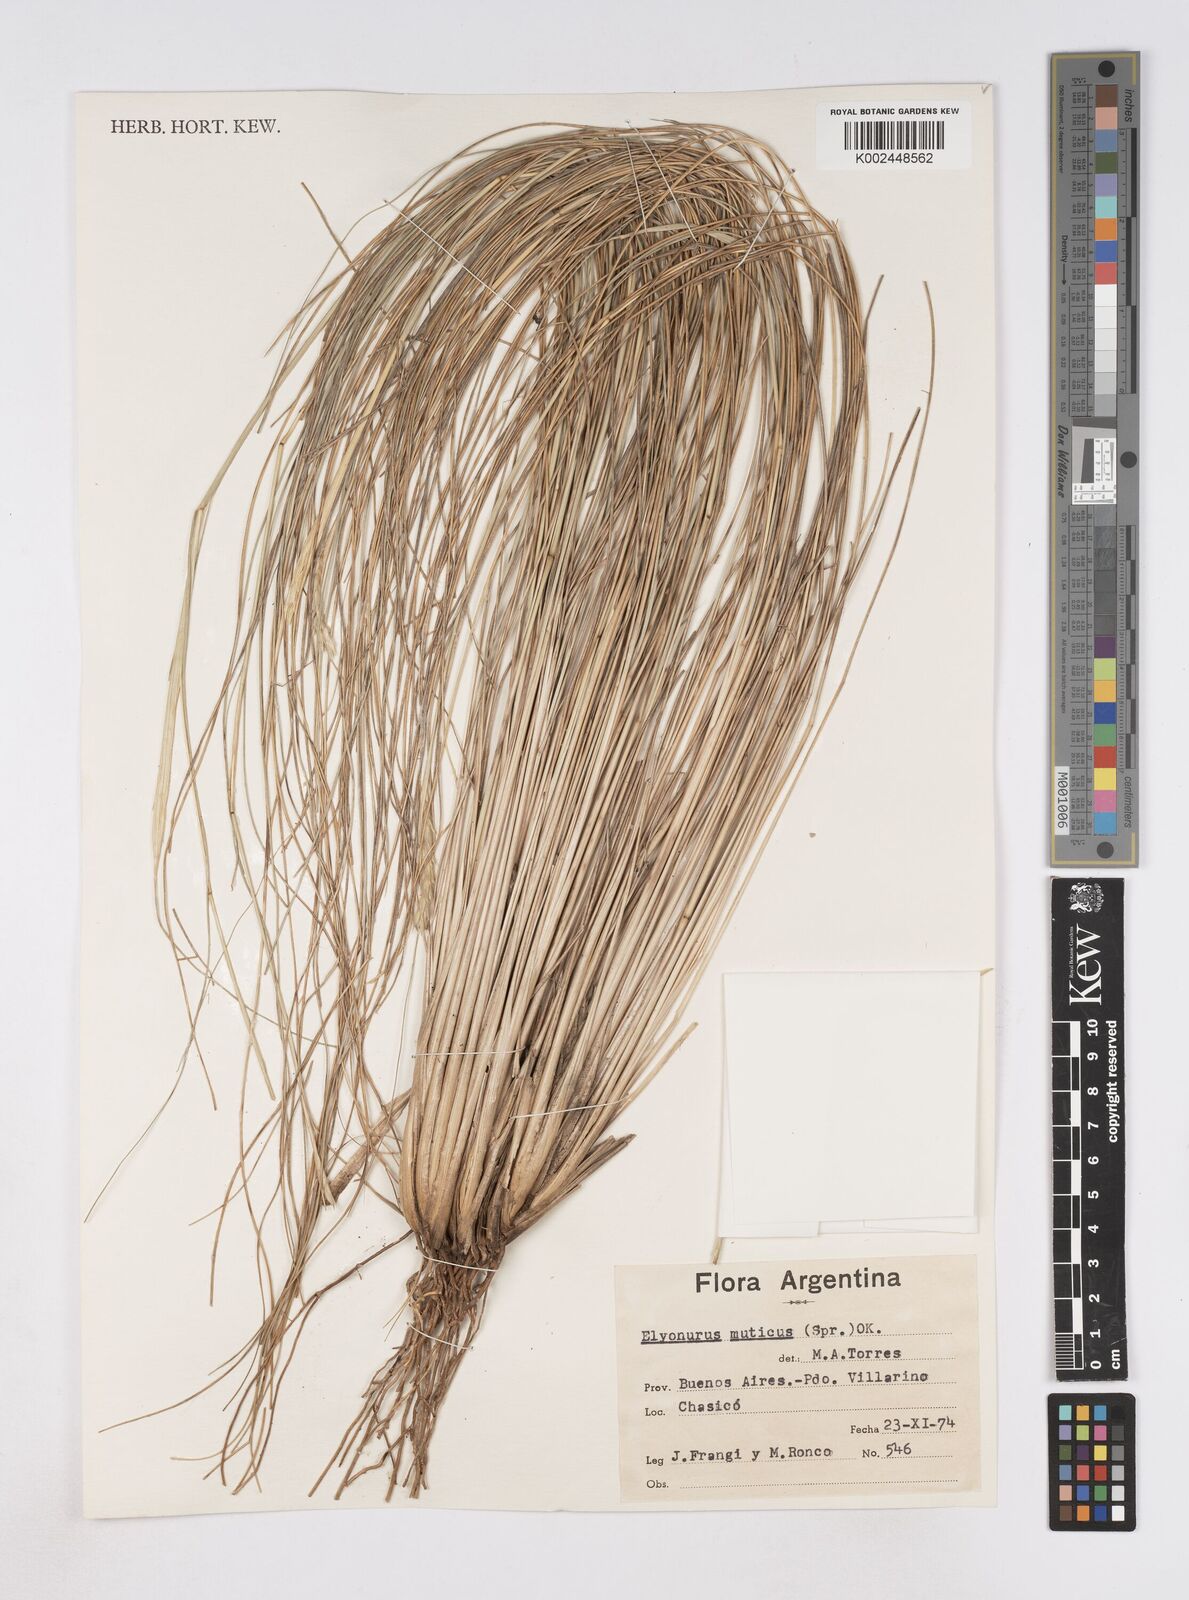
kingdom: Plantae
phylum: Tracheophyta
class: Liliopsida
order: Poales
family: Poaceae
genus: Elionurus
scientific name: Elionurus muticus
